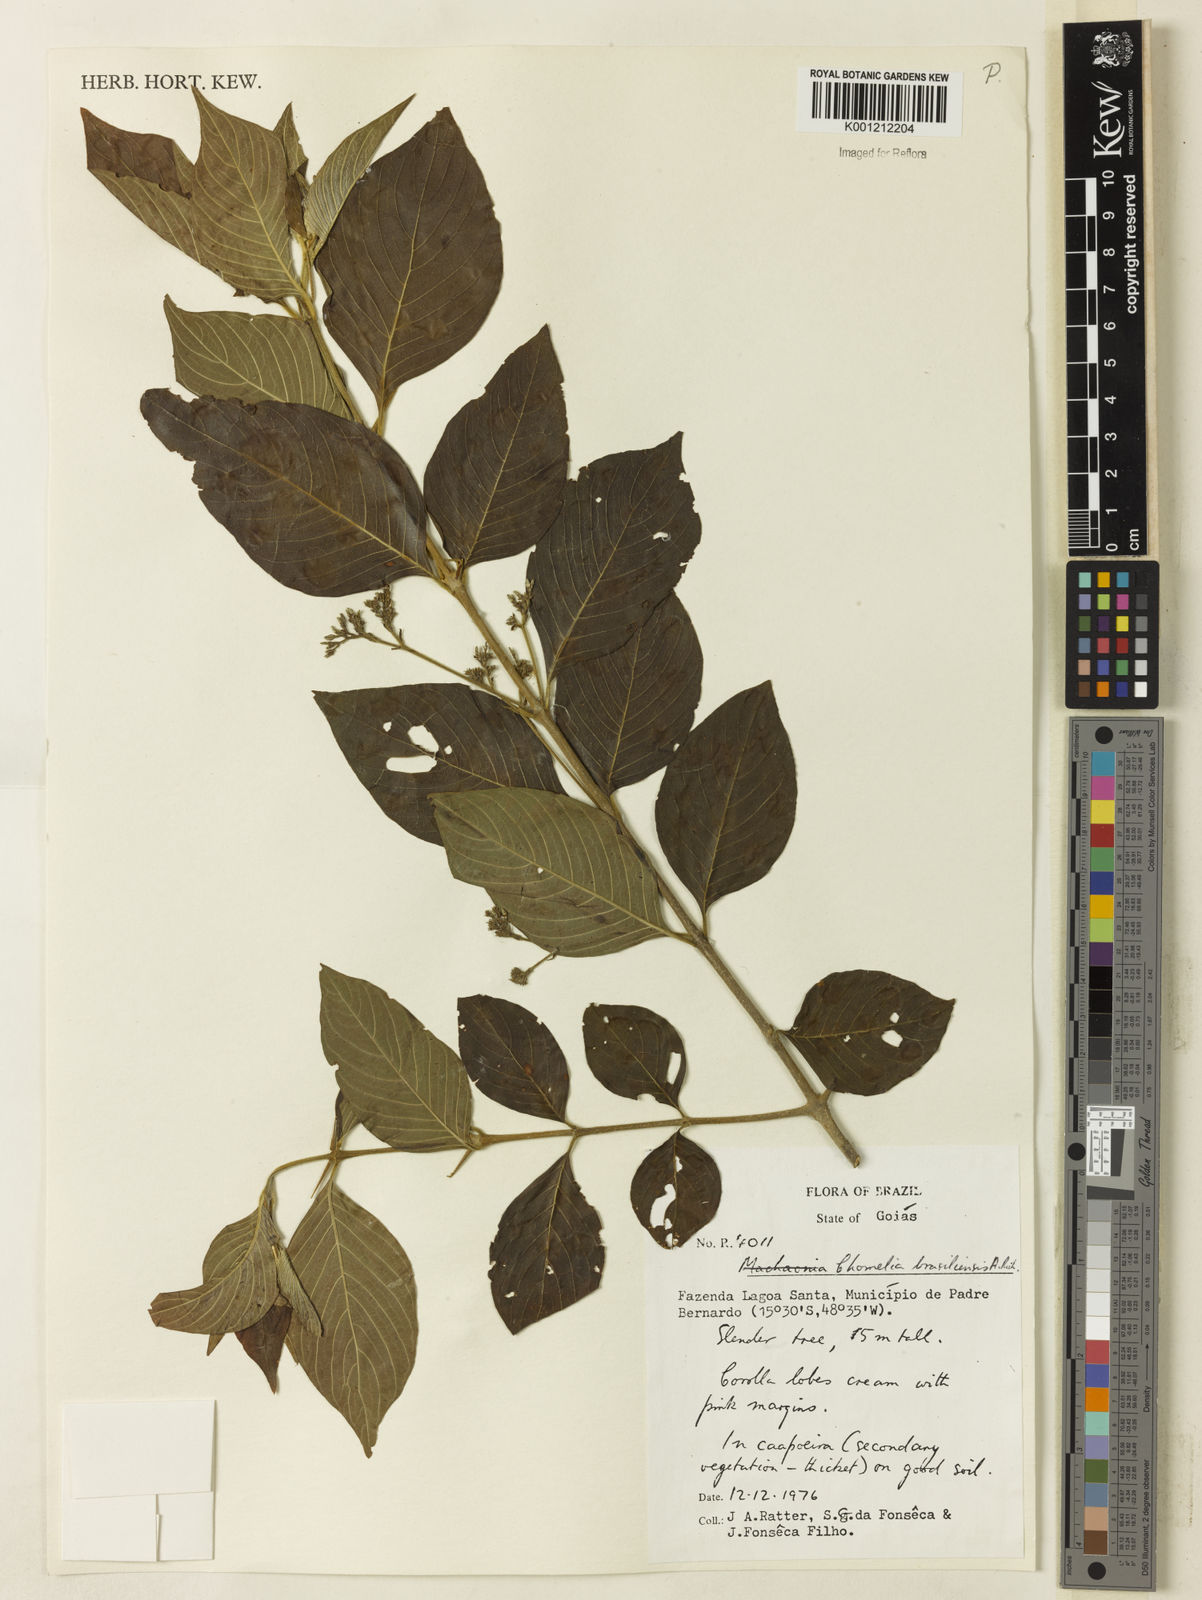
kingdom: Plantae
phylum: Tracheophyta
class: Magnoliopsida
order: Gentianales
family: Rubiaceae
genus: Chomelia
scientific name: Chomelia brasiliana
